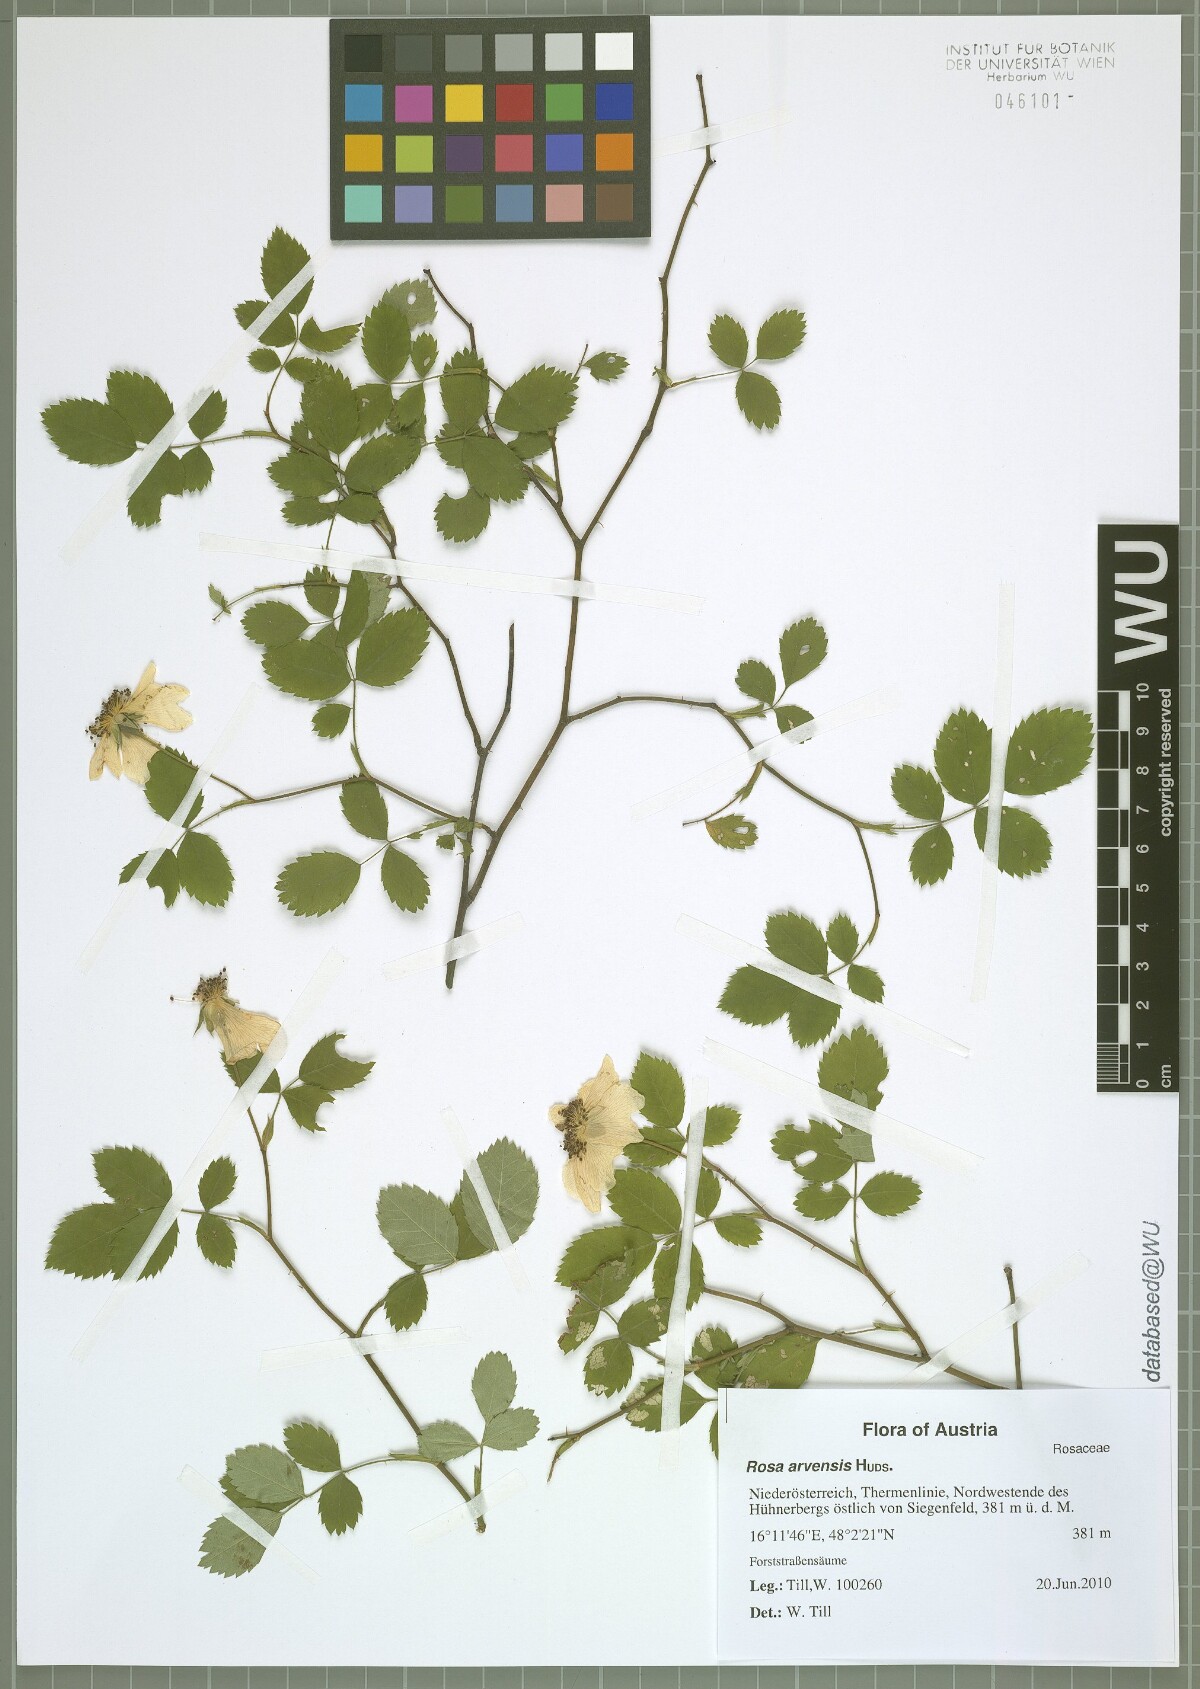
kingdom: Plantae
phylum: Tracheophyta
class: Magnoliopsida
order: Rosales
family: Rosaceae
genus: Rosa
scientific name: Rosa arvensis
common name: Field rose
